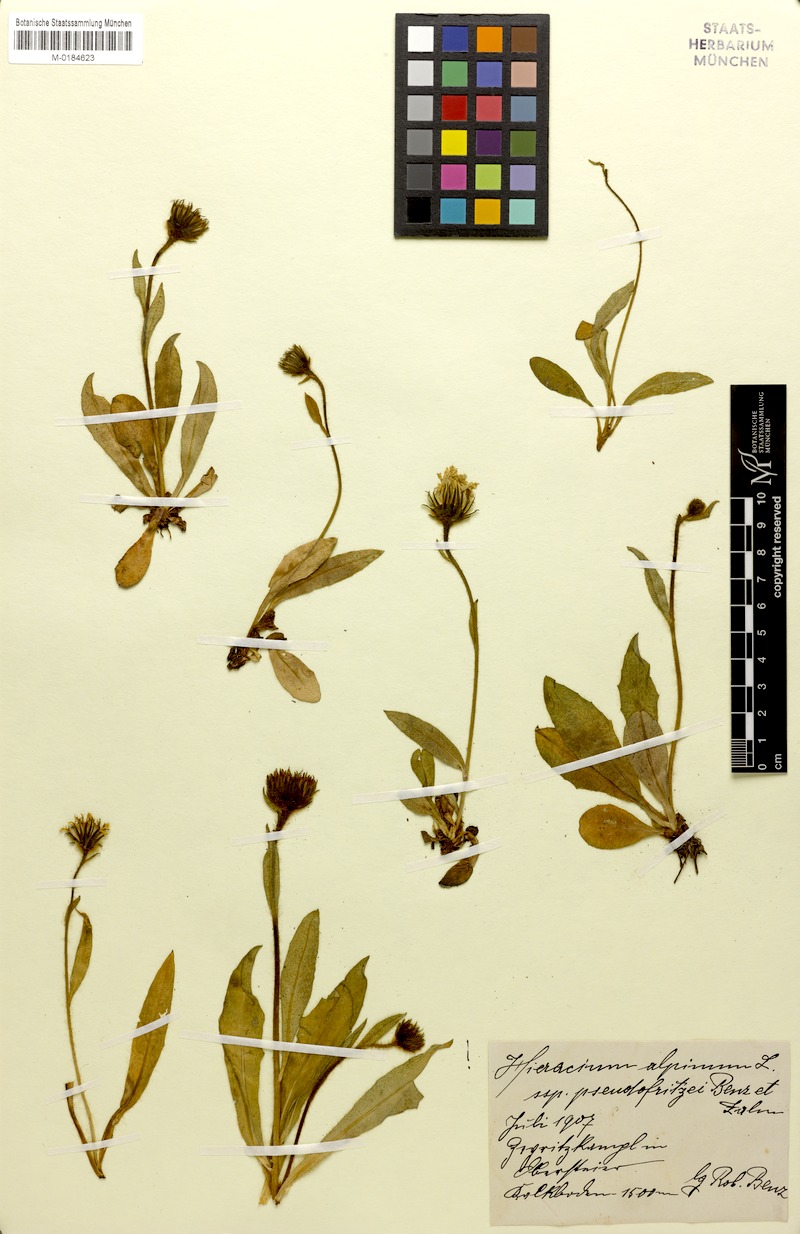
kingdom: Plantae
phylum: Tracheophyta
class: Magnoliopsida
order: Asterales
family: Asteraceae
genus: Hieracium
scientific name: Hieracium pseudofritzei
